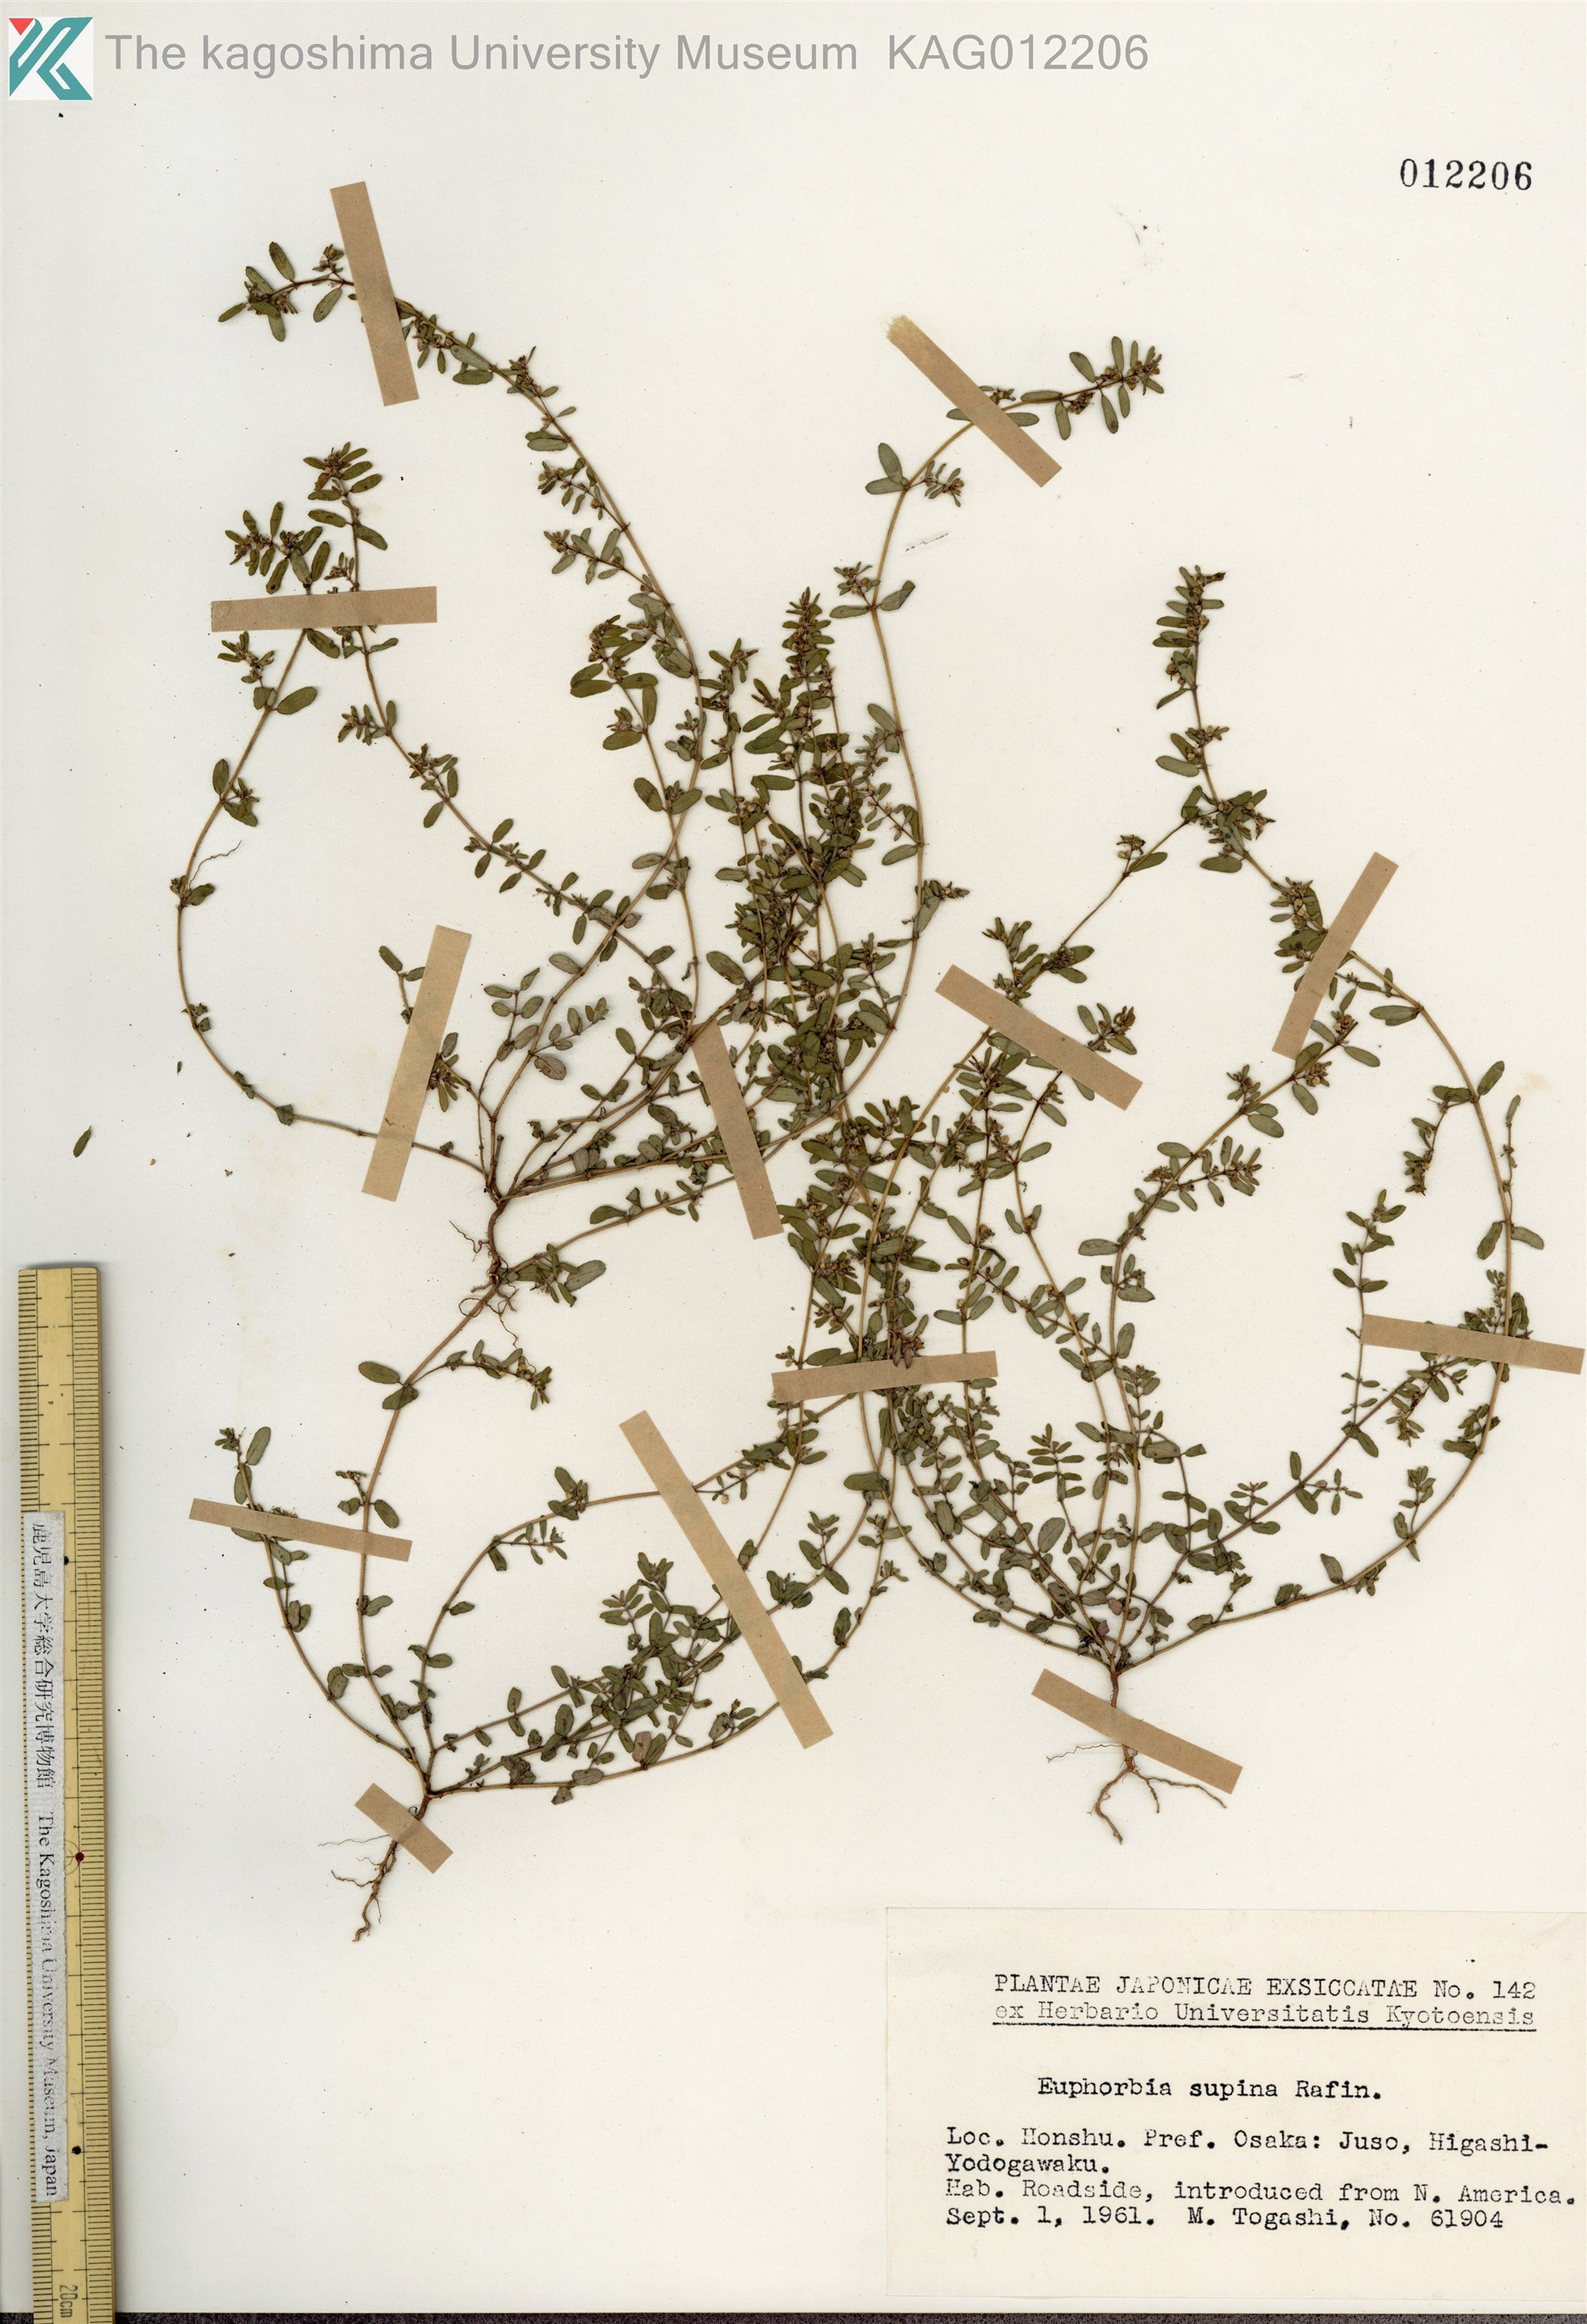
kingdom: Plantae
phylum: Tracheophyta
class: Magnoliopsida
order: Malpighiales
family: Euphorbiaceae
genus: Euphorbia
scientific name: Euphorbia maculata
